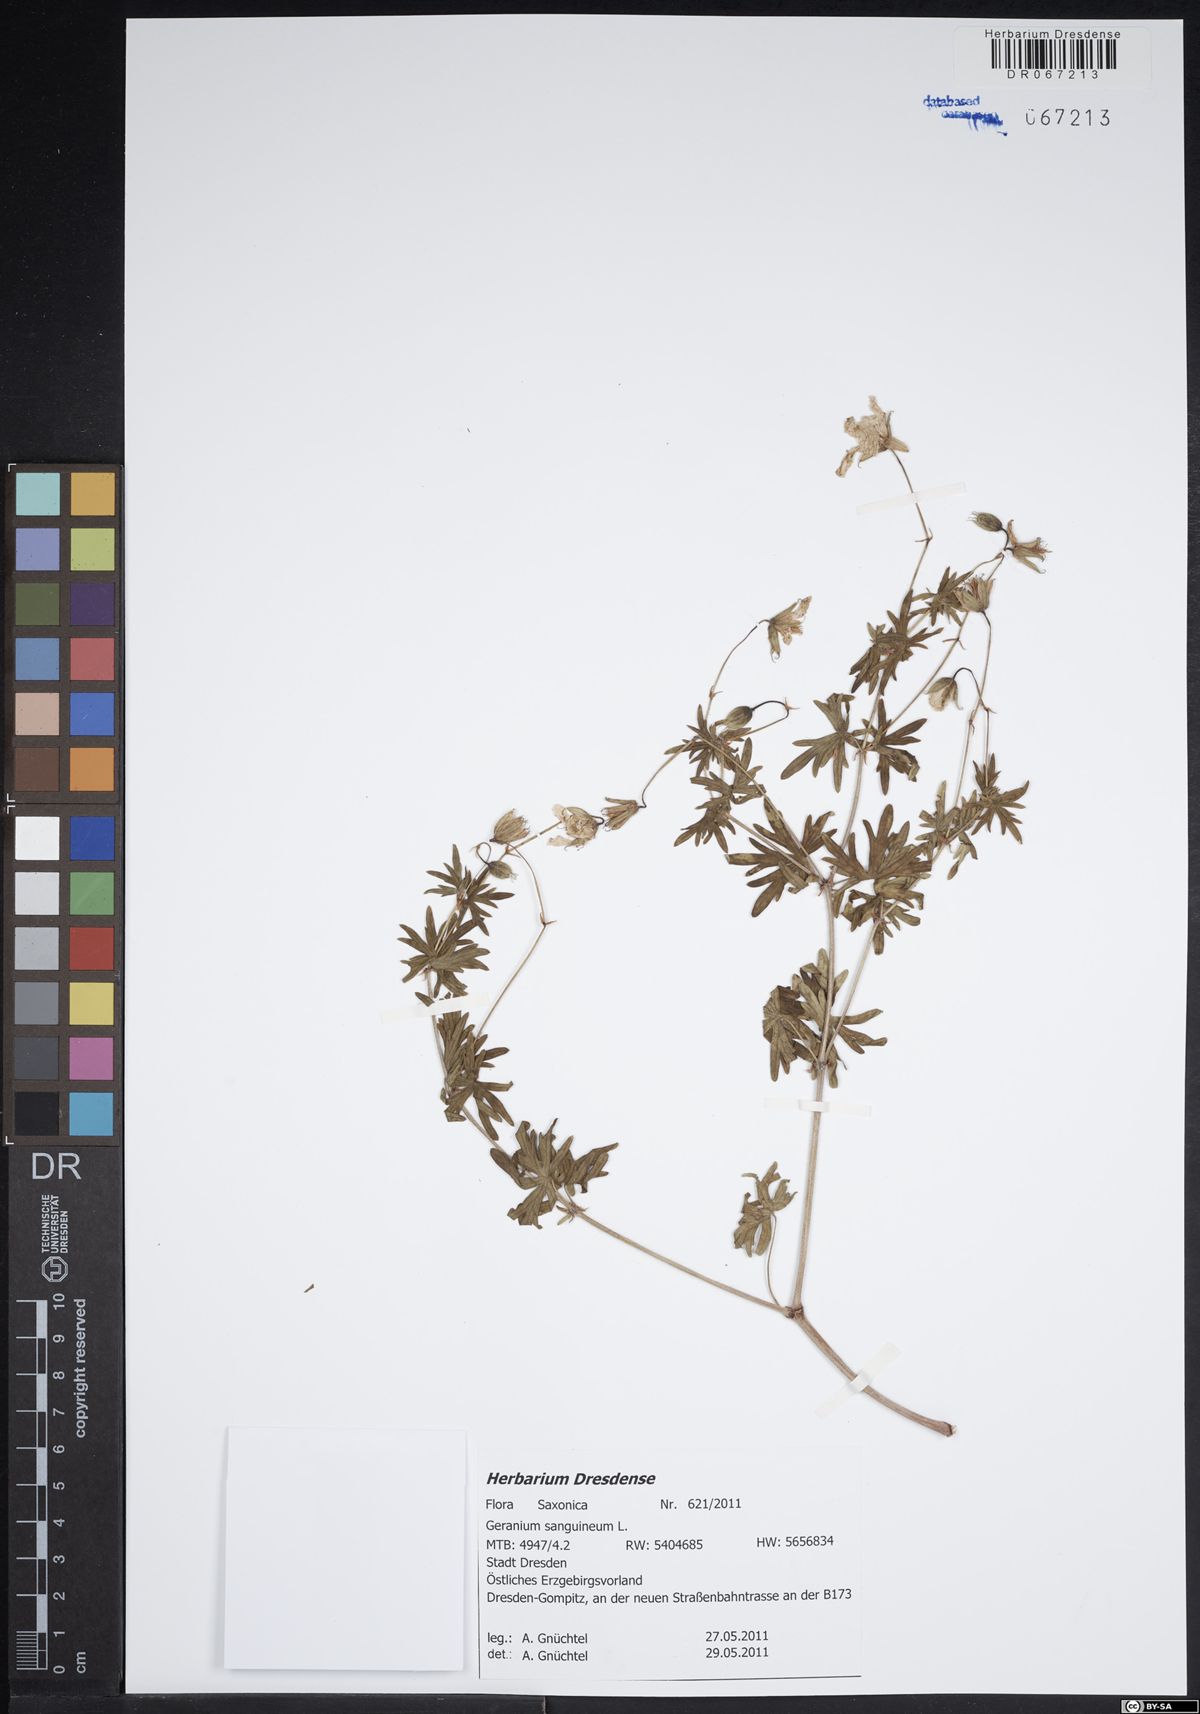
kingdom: Plantae
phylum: Tracheophyta
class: Magnoliopsida
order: Geraniales
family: Geraniaceae
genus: Geranium
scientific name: Geranium sanguineum
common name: Bloody crane's-bill
